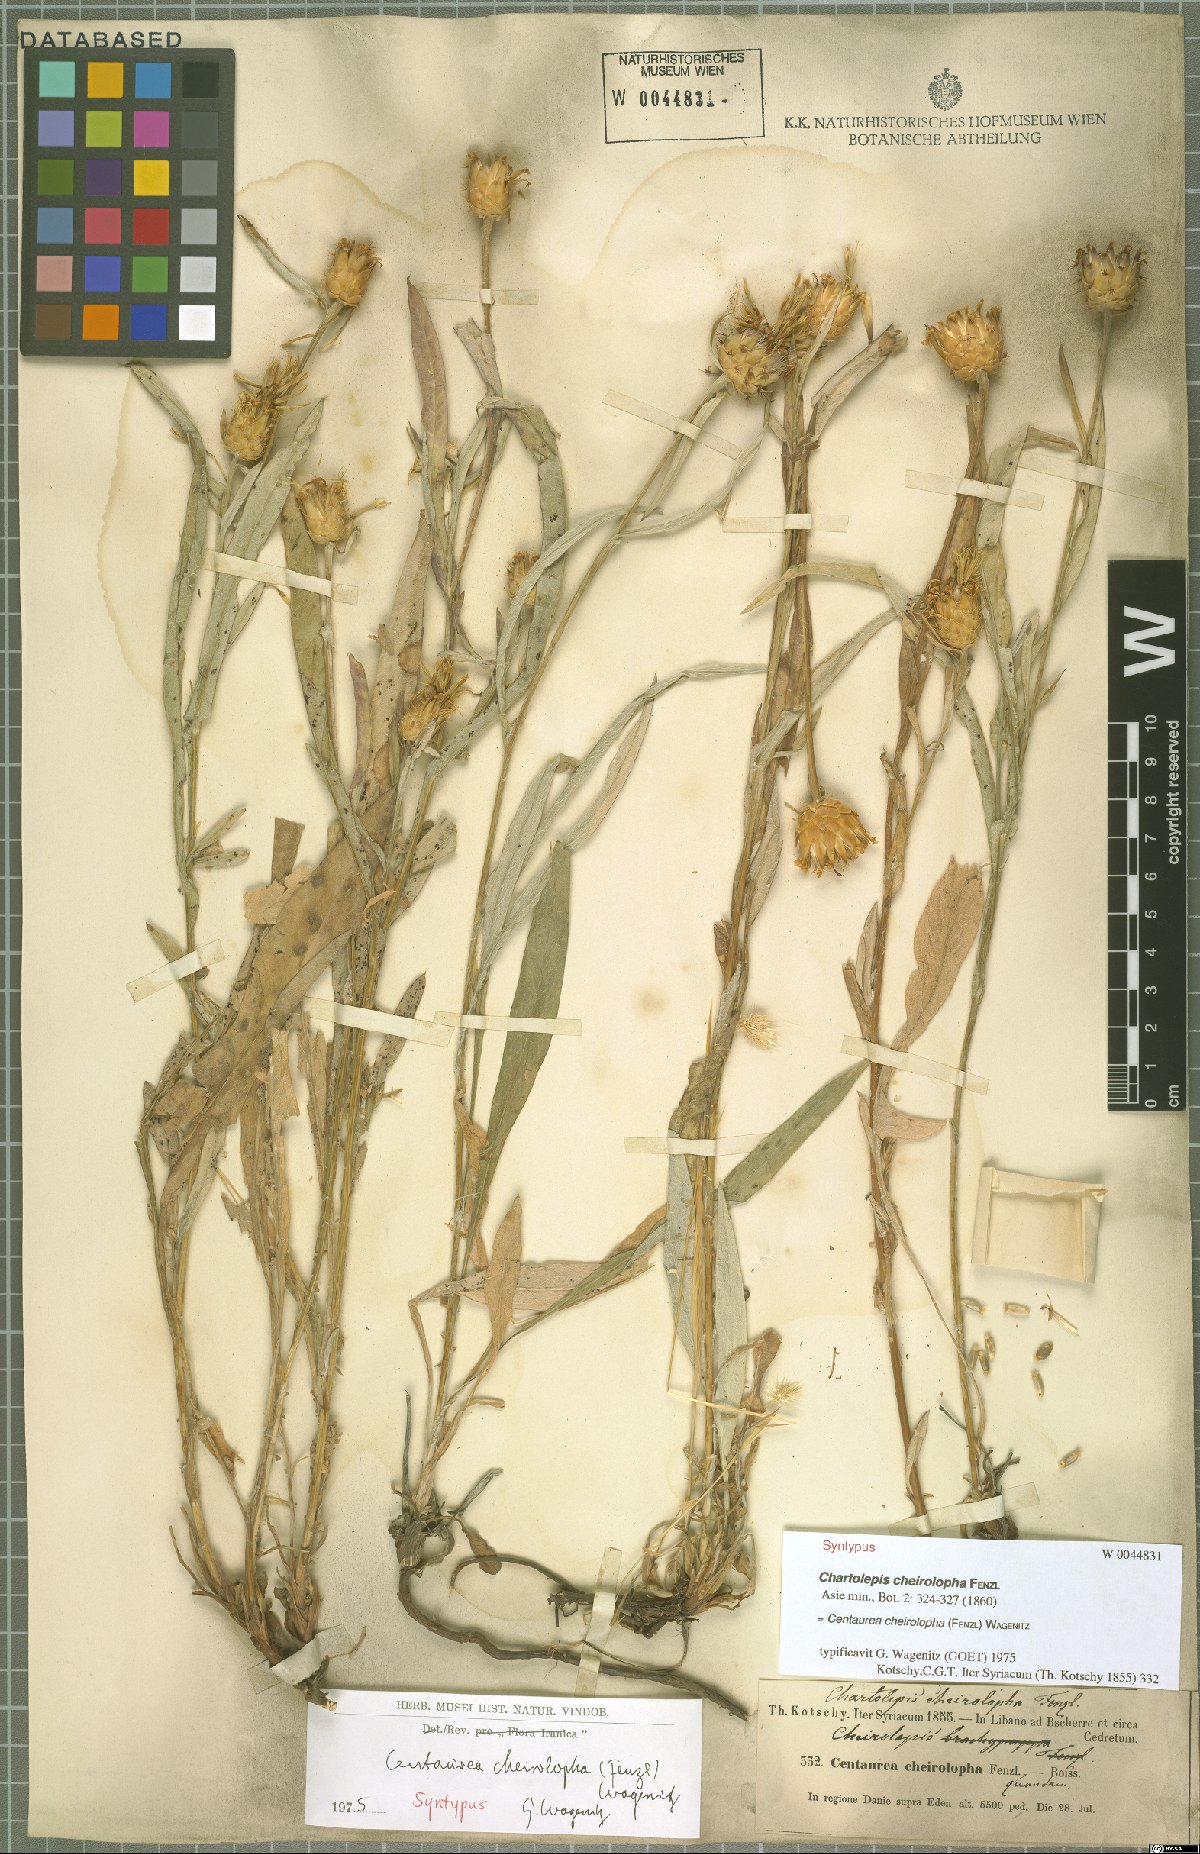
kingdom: Plantae
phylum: Tracheophyta
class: Magnoliopsida
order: Asterales
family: Asteraceae
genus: Centaurea
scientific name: Centaurea cheirolopha
